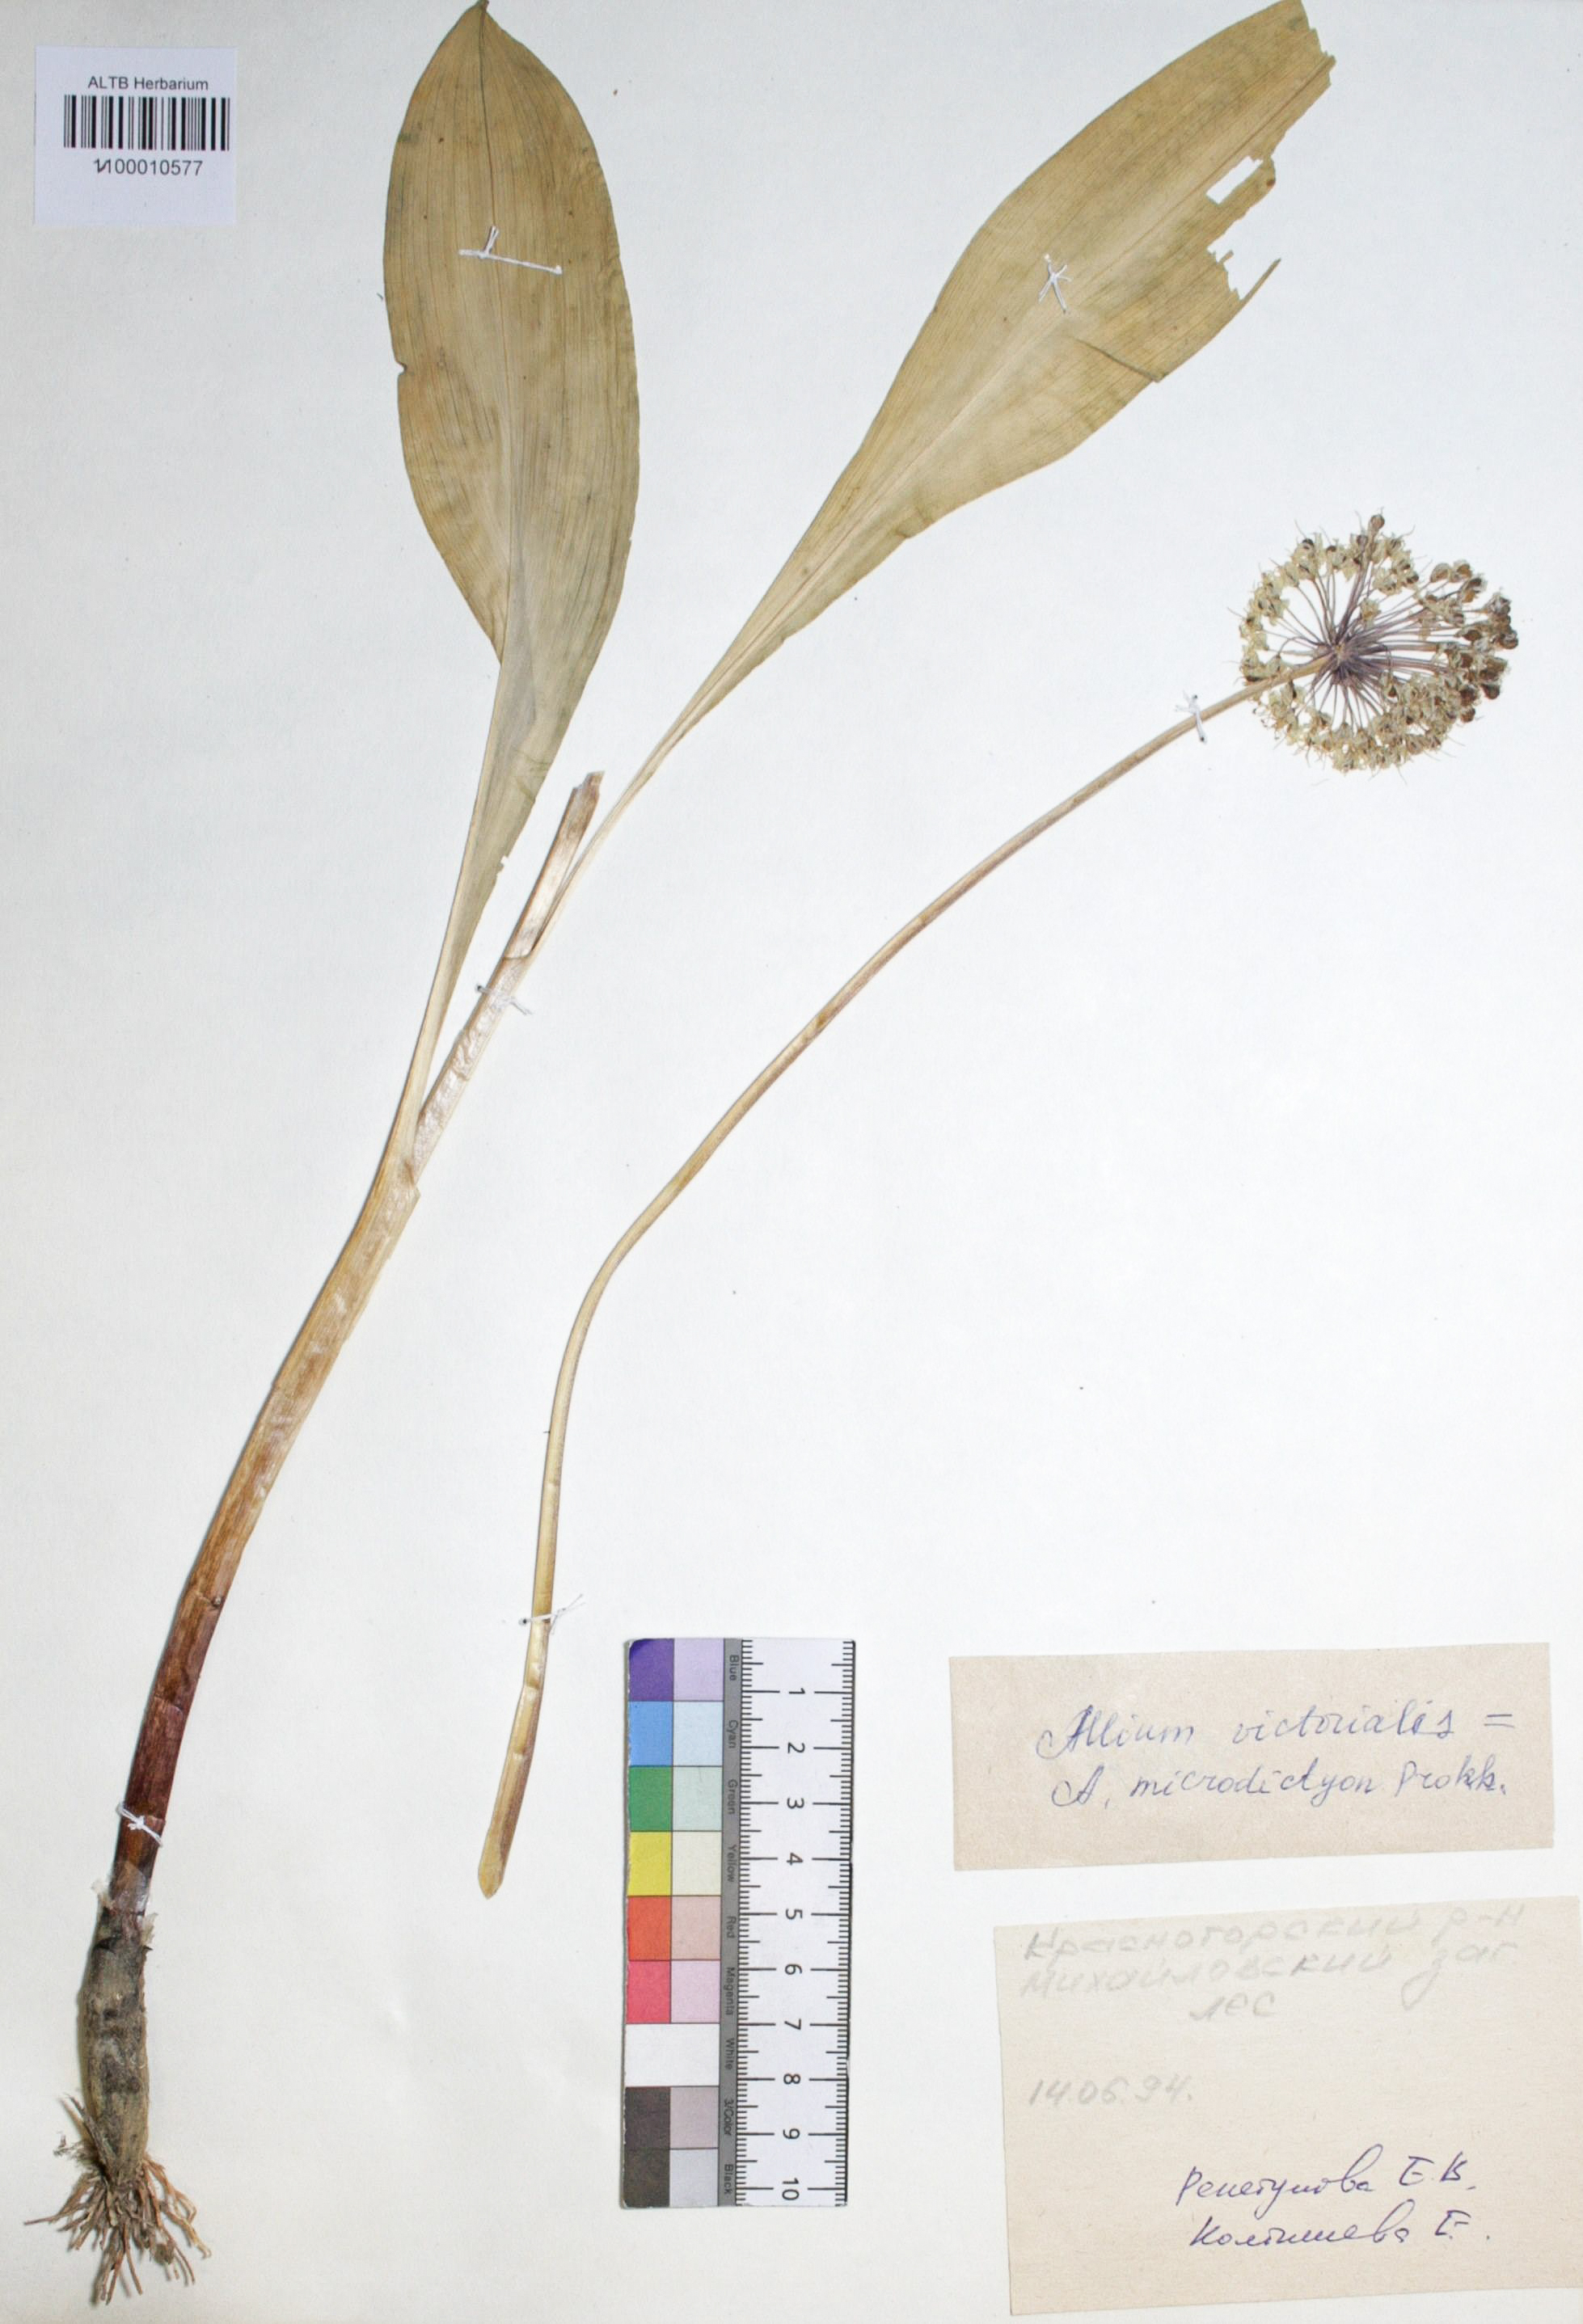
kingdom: Plantae
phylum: Tracheophyta
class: Liliopsida
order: Asparagales
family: Amaryllidaceae
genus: Allium
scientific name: Allium victorialis
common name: Alpine leek
